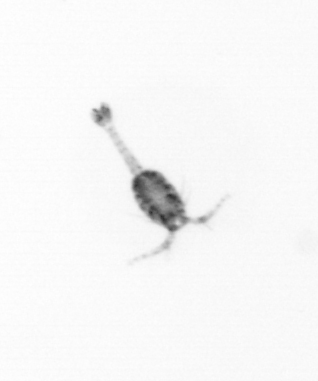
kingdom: Animalia
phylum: Arthropoda
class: Copepoda
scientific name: Copepoda
